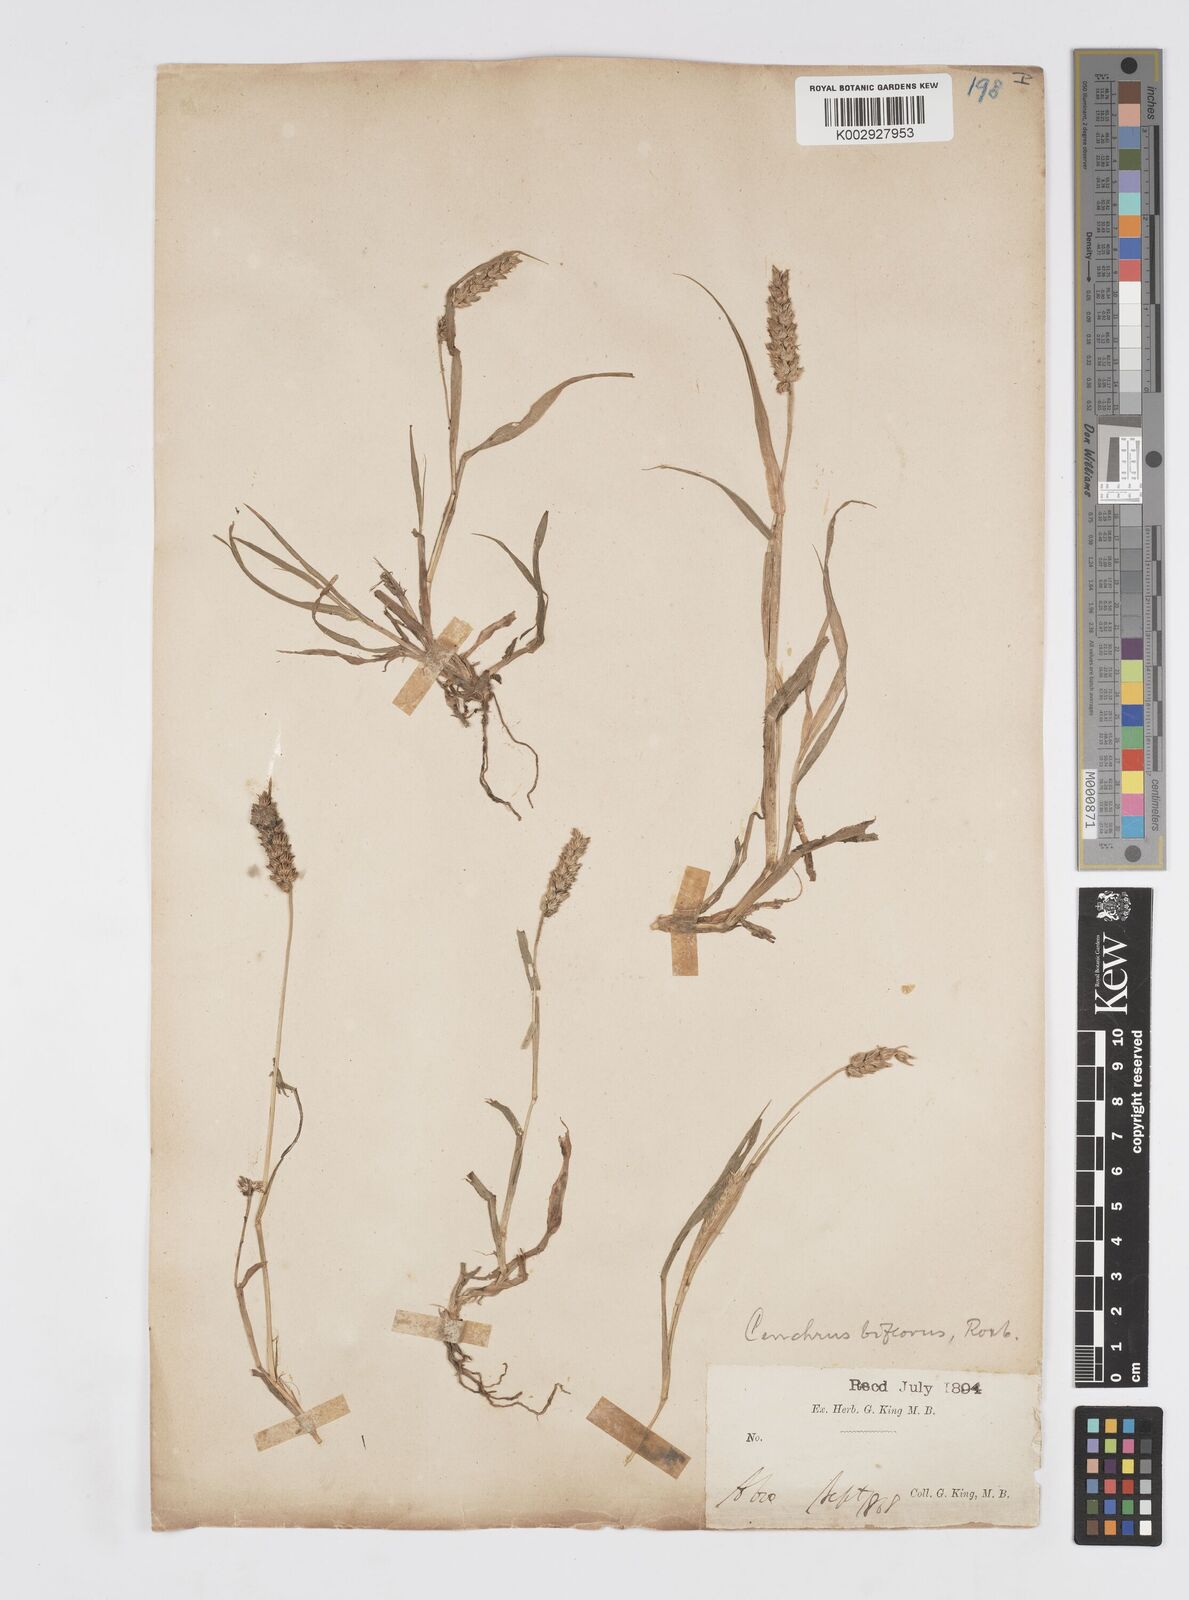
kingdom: Plantae
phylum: Tracheophyta
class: Liliopsida
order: Poales
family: Poaceae
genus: Cenchrus
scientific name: Cenchrus setigerus
